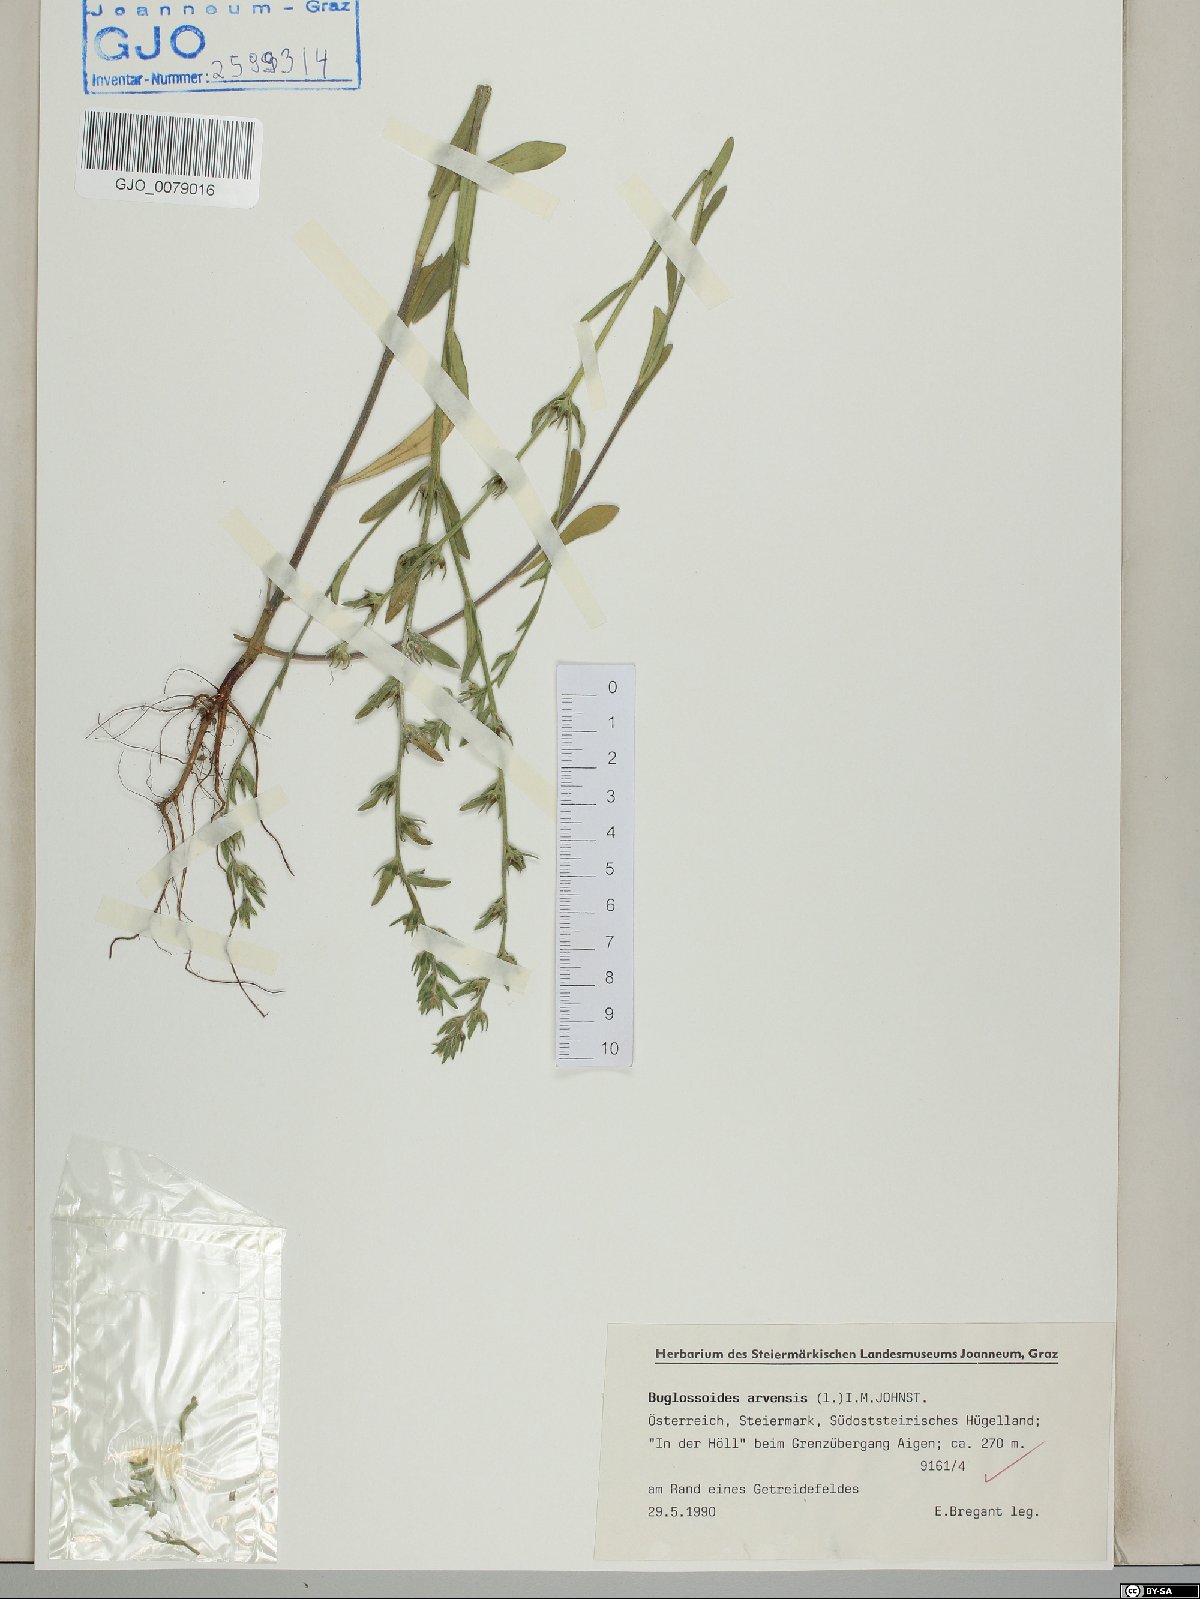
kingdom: Plantae
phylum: Tracheophyta
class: Magnoliopsida
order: Boraginales
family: Boraginaceae
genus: Buglossoides
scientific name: Buglossoides arvensis
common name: Corn gromwell
